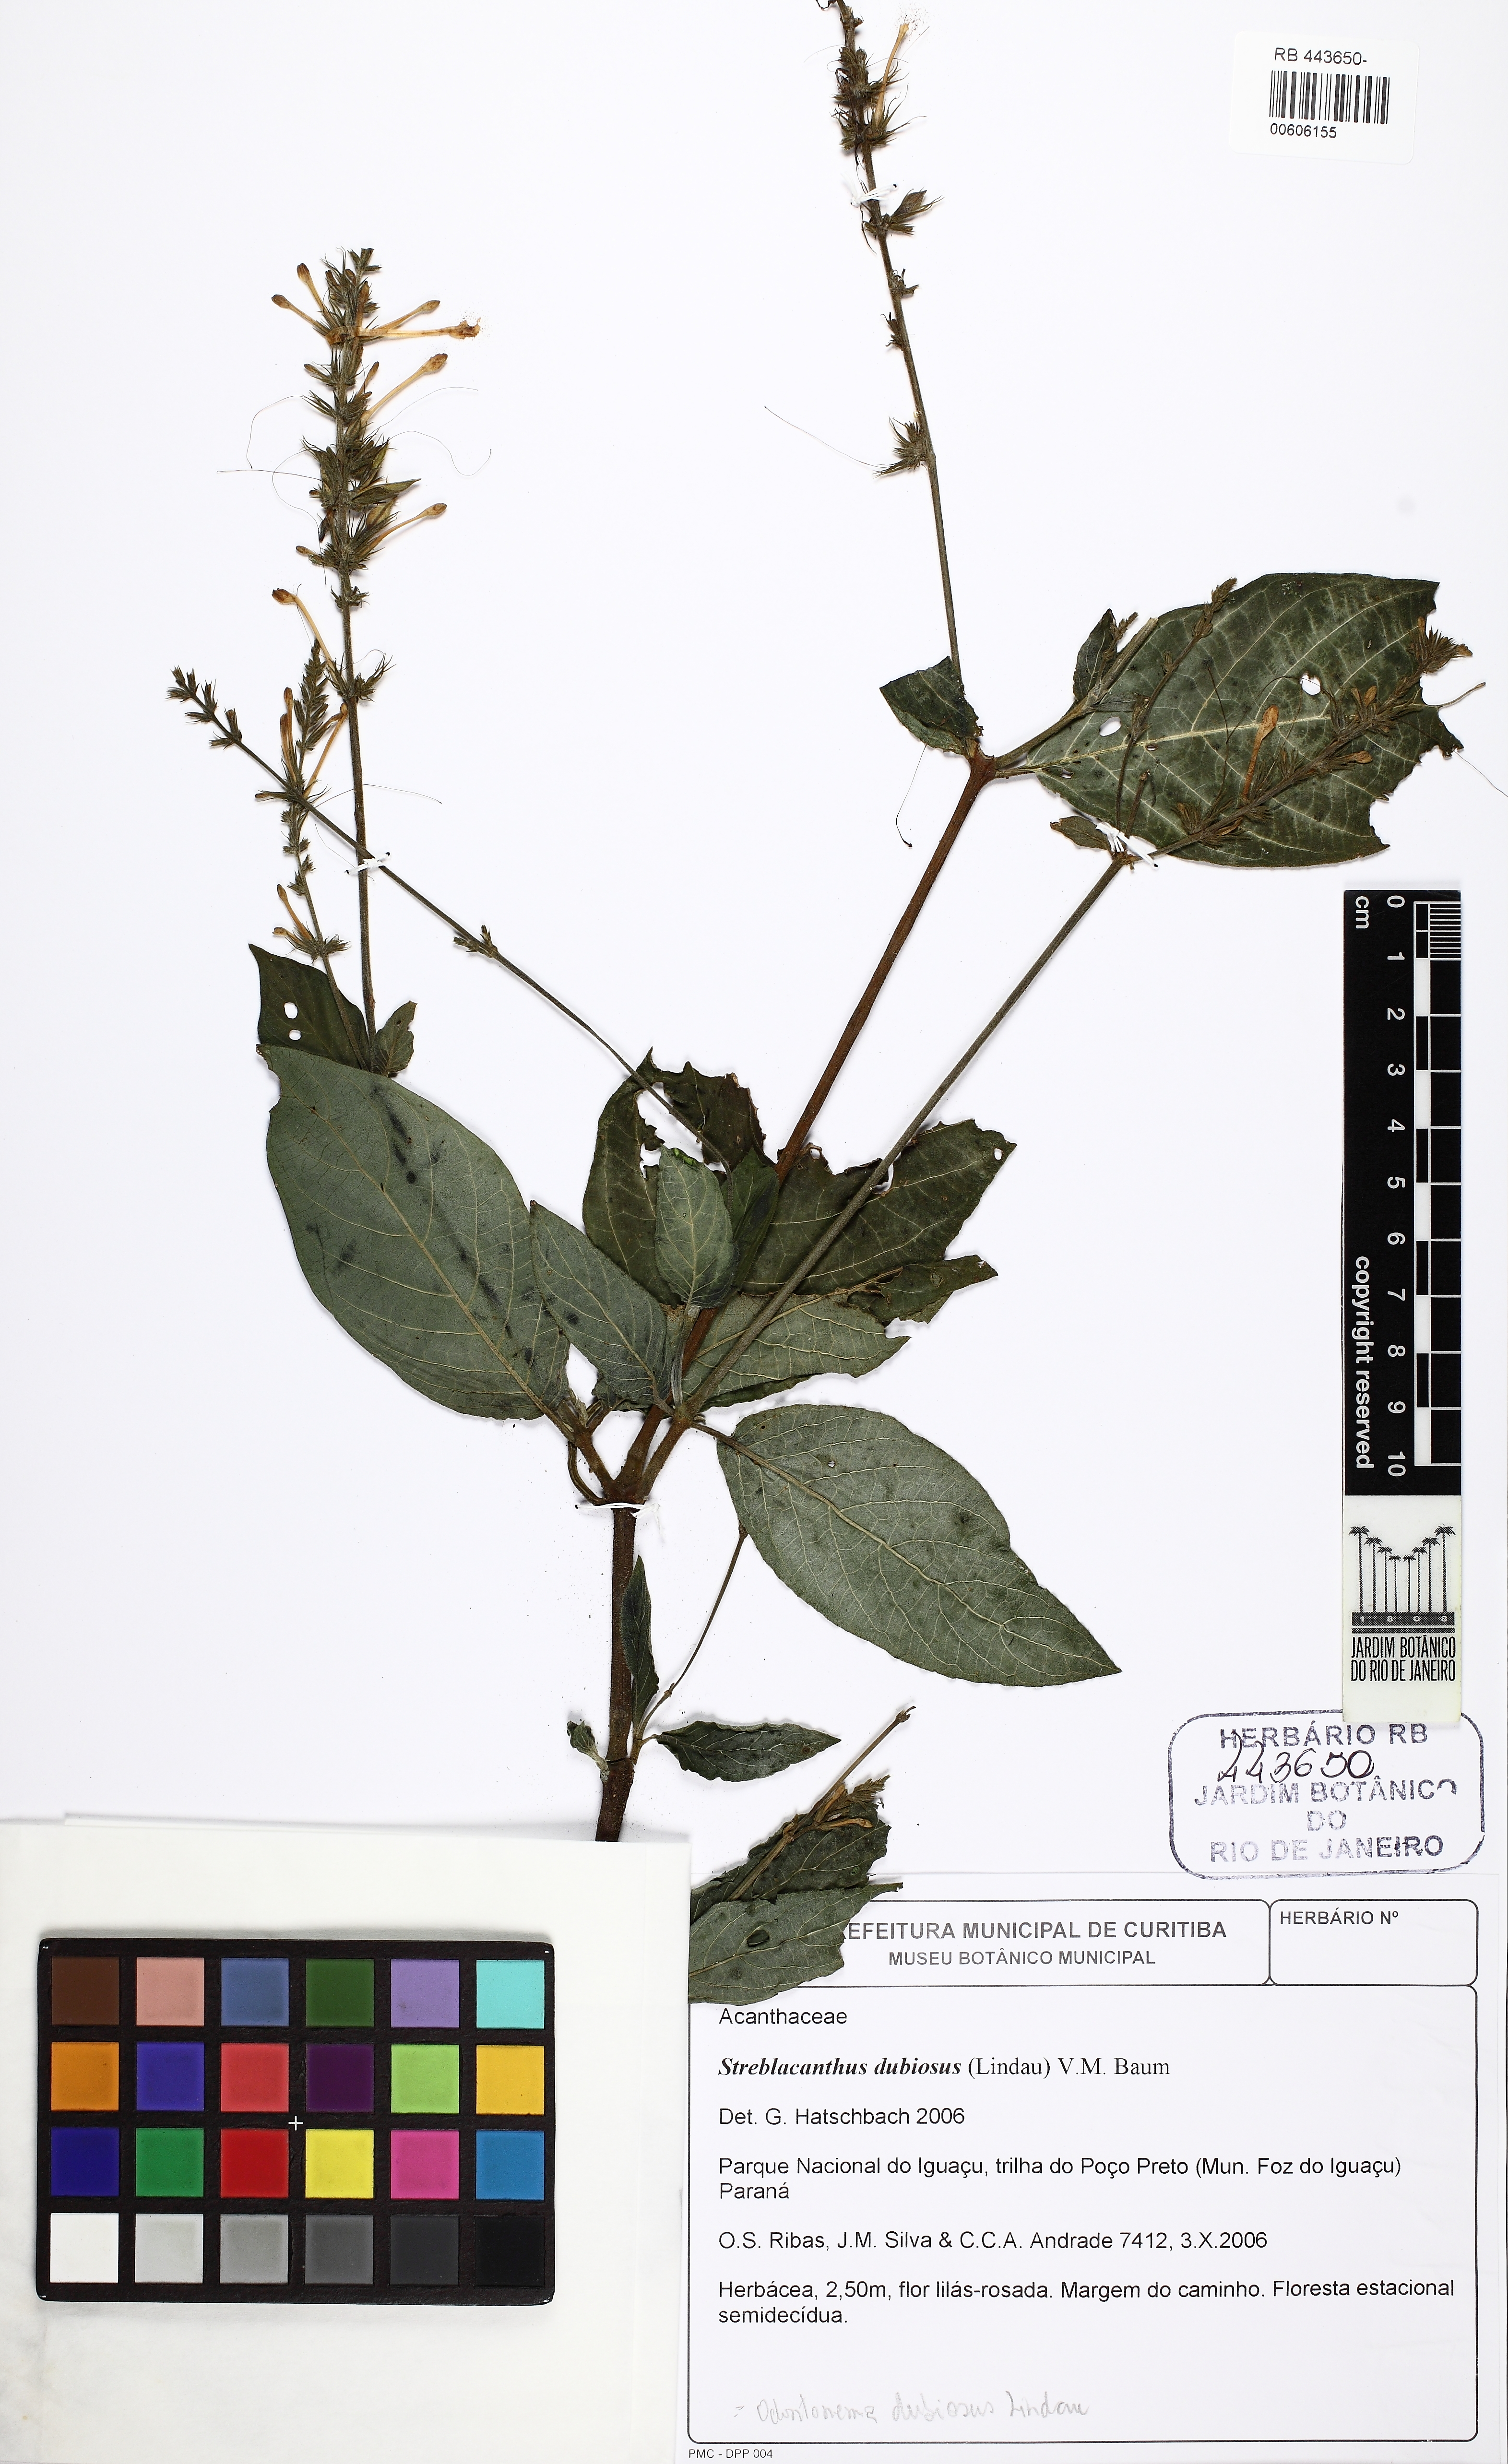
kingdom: Plantae
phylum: Tracheophyta
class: Magnoliopsida
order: Lamiales
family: Acanthaceae
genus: Pachystachys
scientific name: Pachystachys dubiosa
